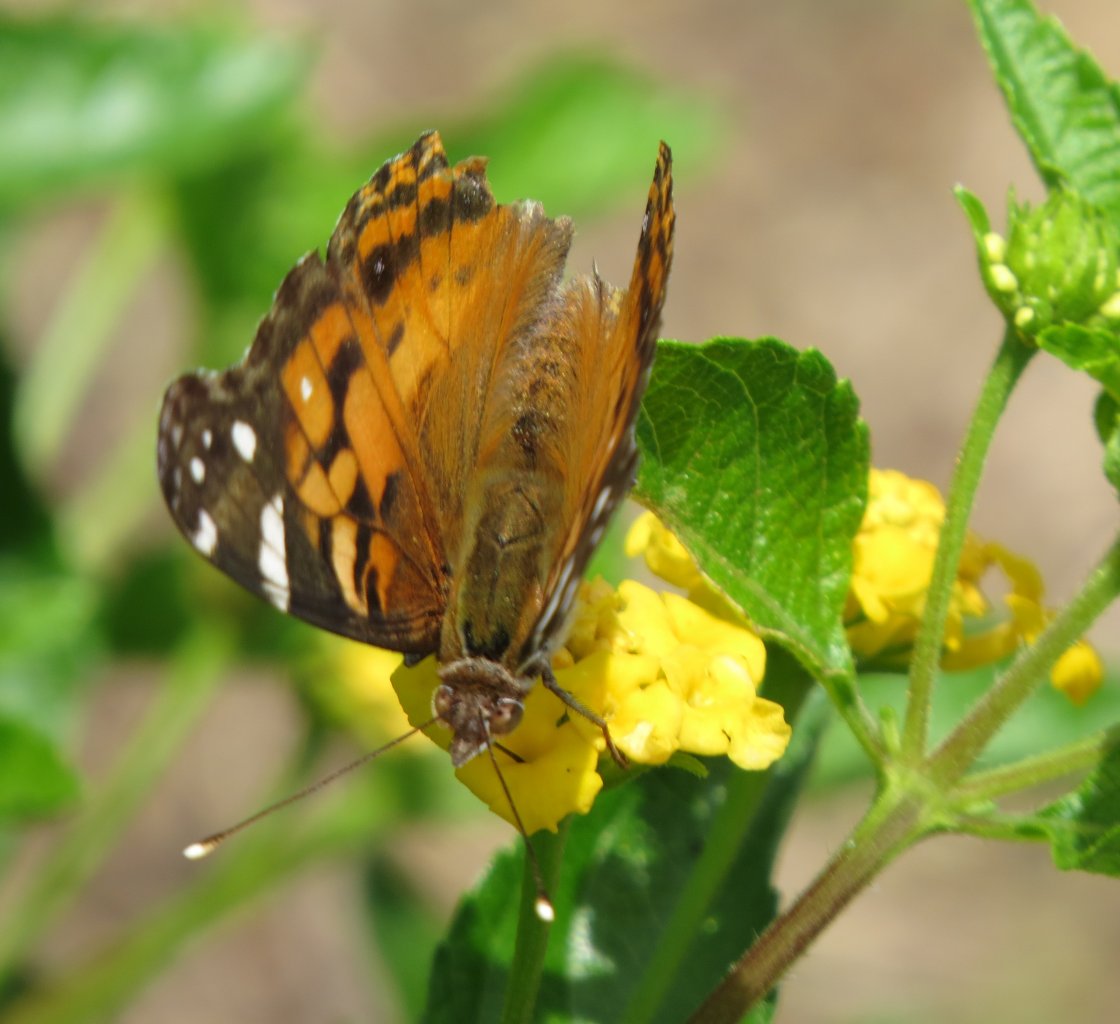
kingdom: Animalia
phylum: Arthropoda
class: Insecta
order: Lepidoptera
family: Nymphalidae
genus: Vanessa
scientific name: Vanessa virginiensis
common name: American Lady
